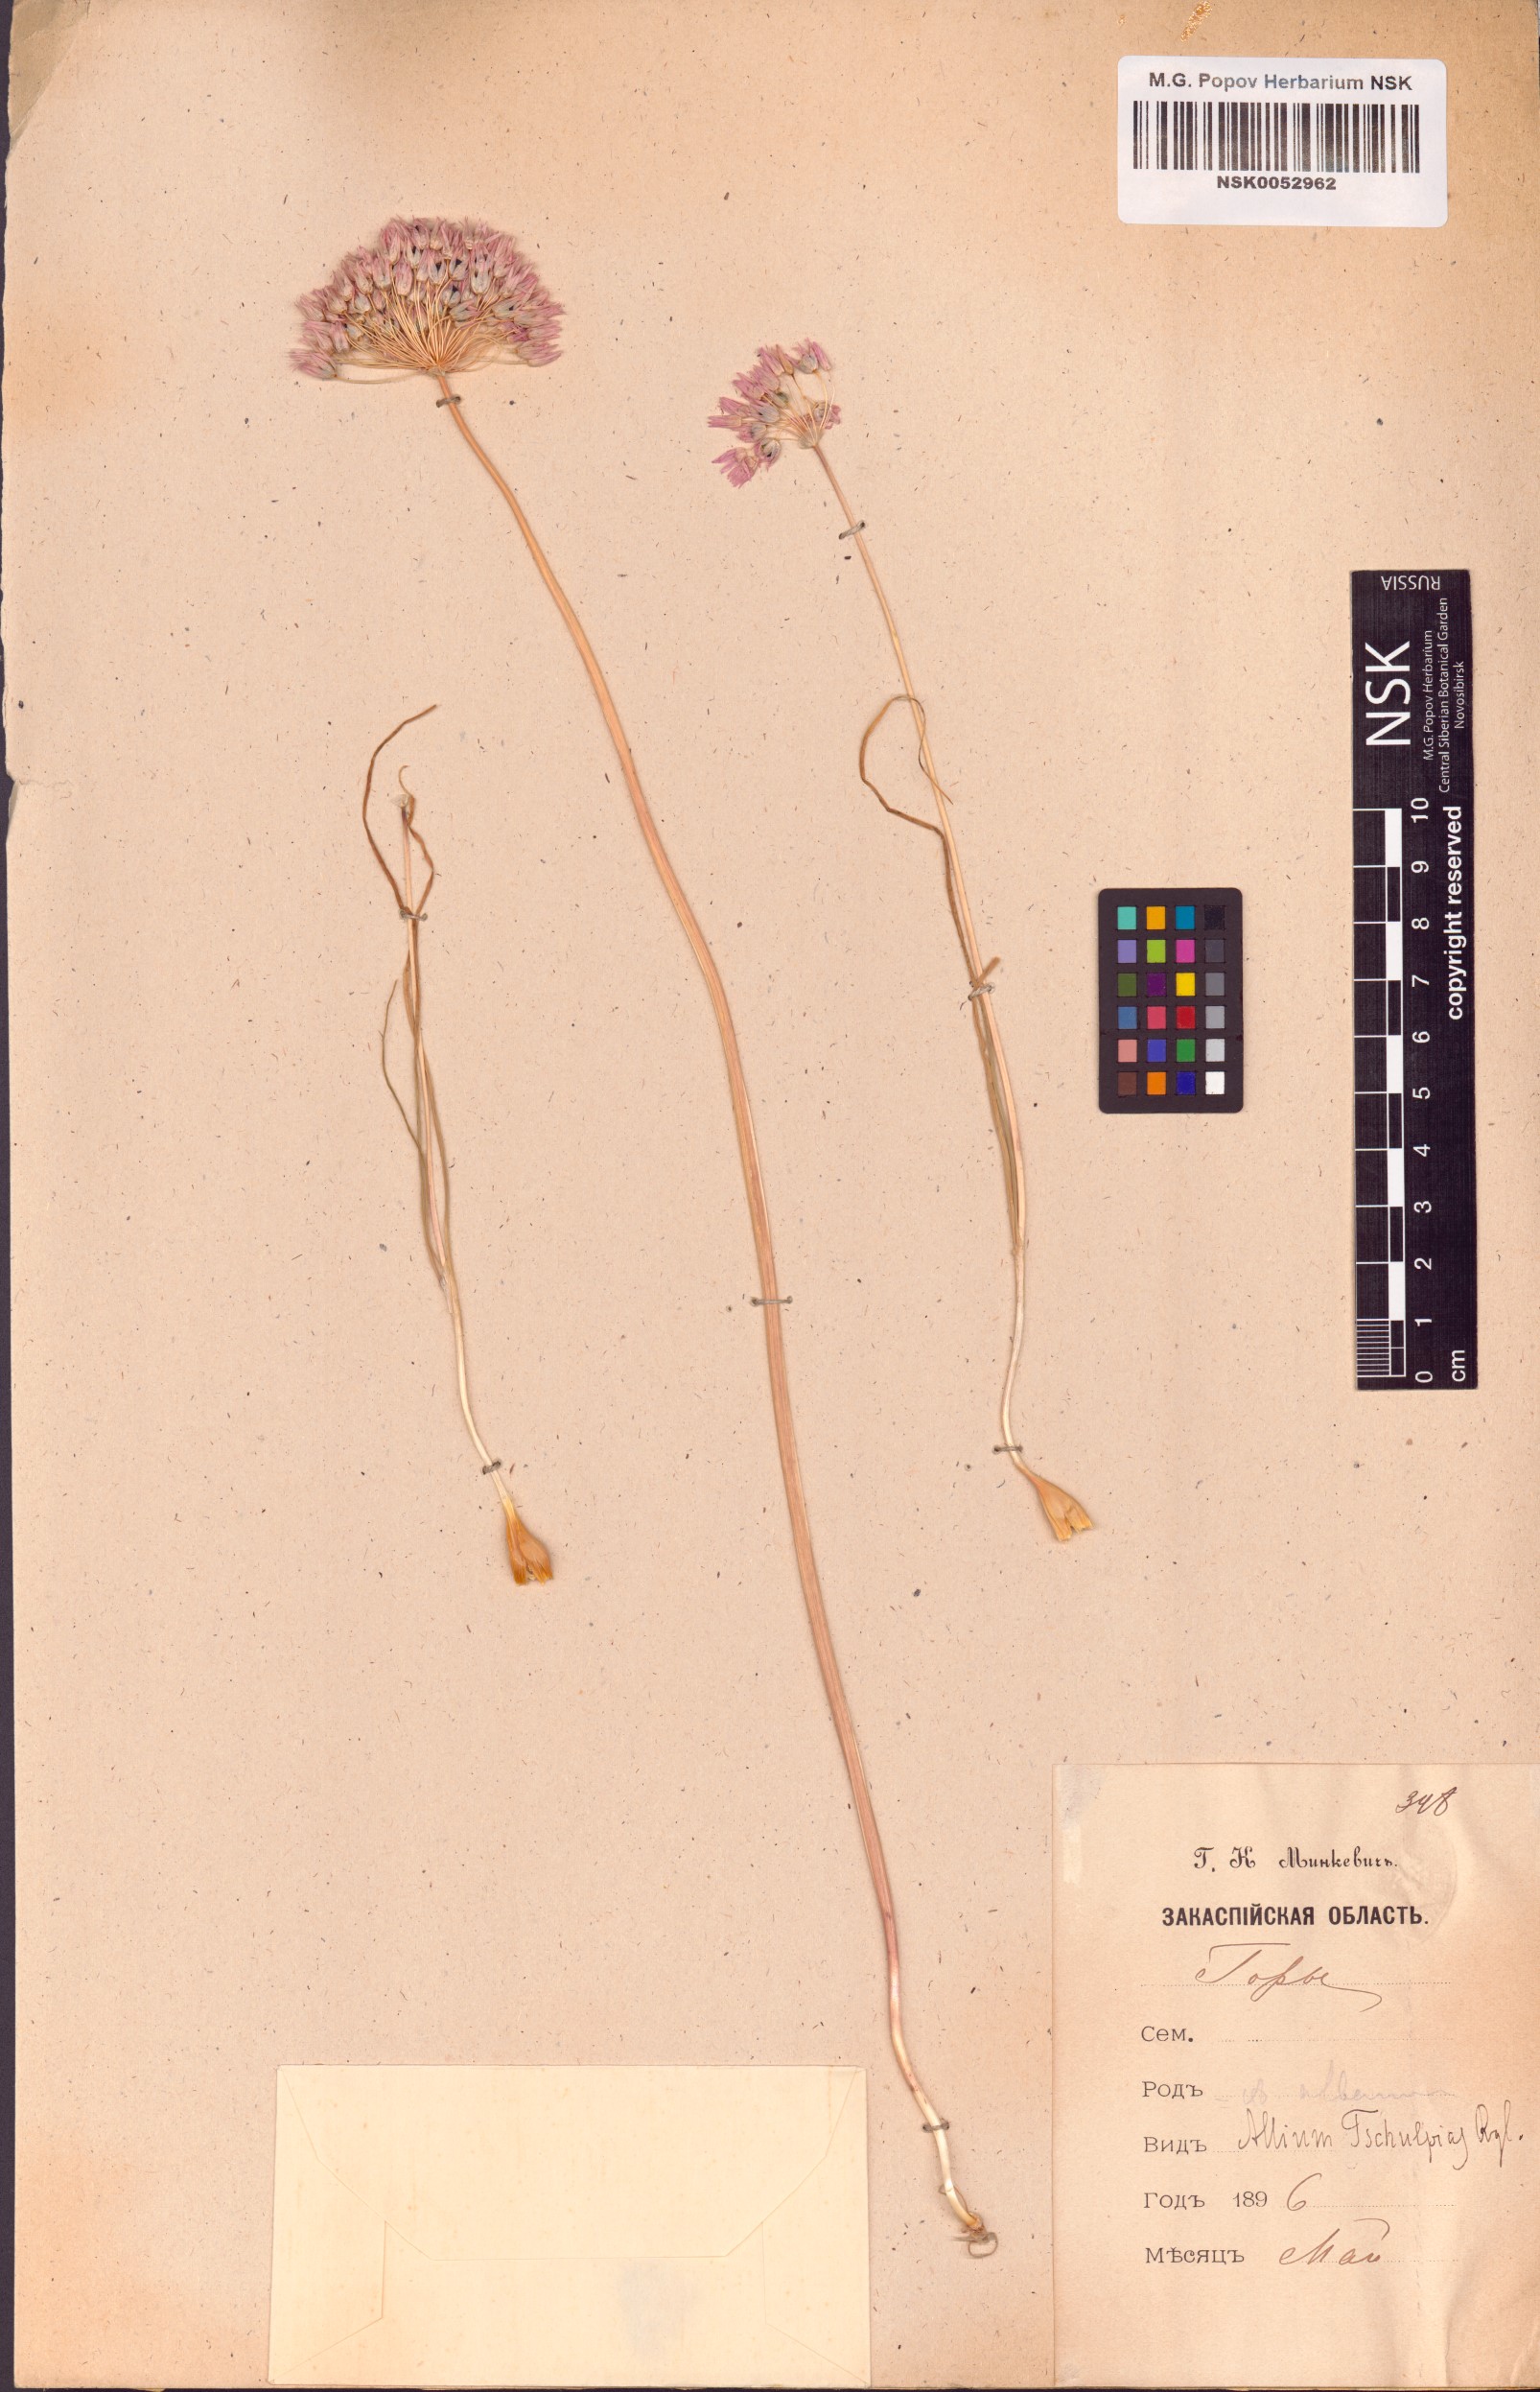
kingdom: Plantae
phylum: Tracheophyta
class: Liliopsida
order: Asparagales
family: Amaryllidaceae
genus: Allium
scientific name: Allium griffithianum
